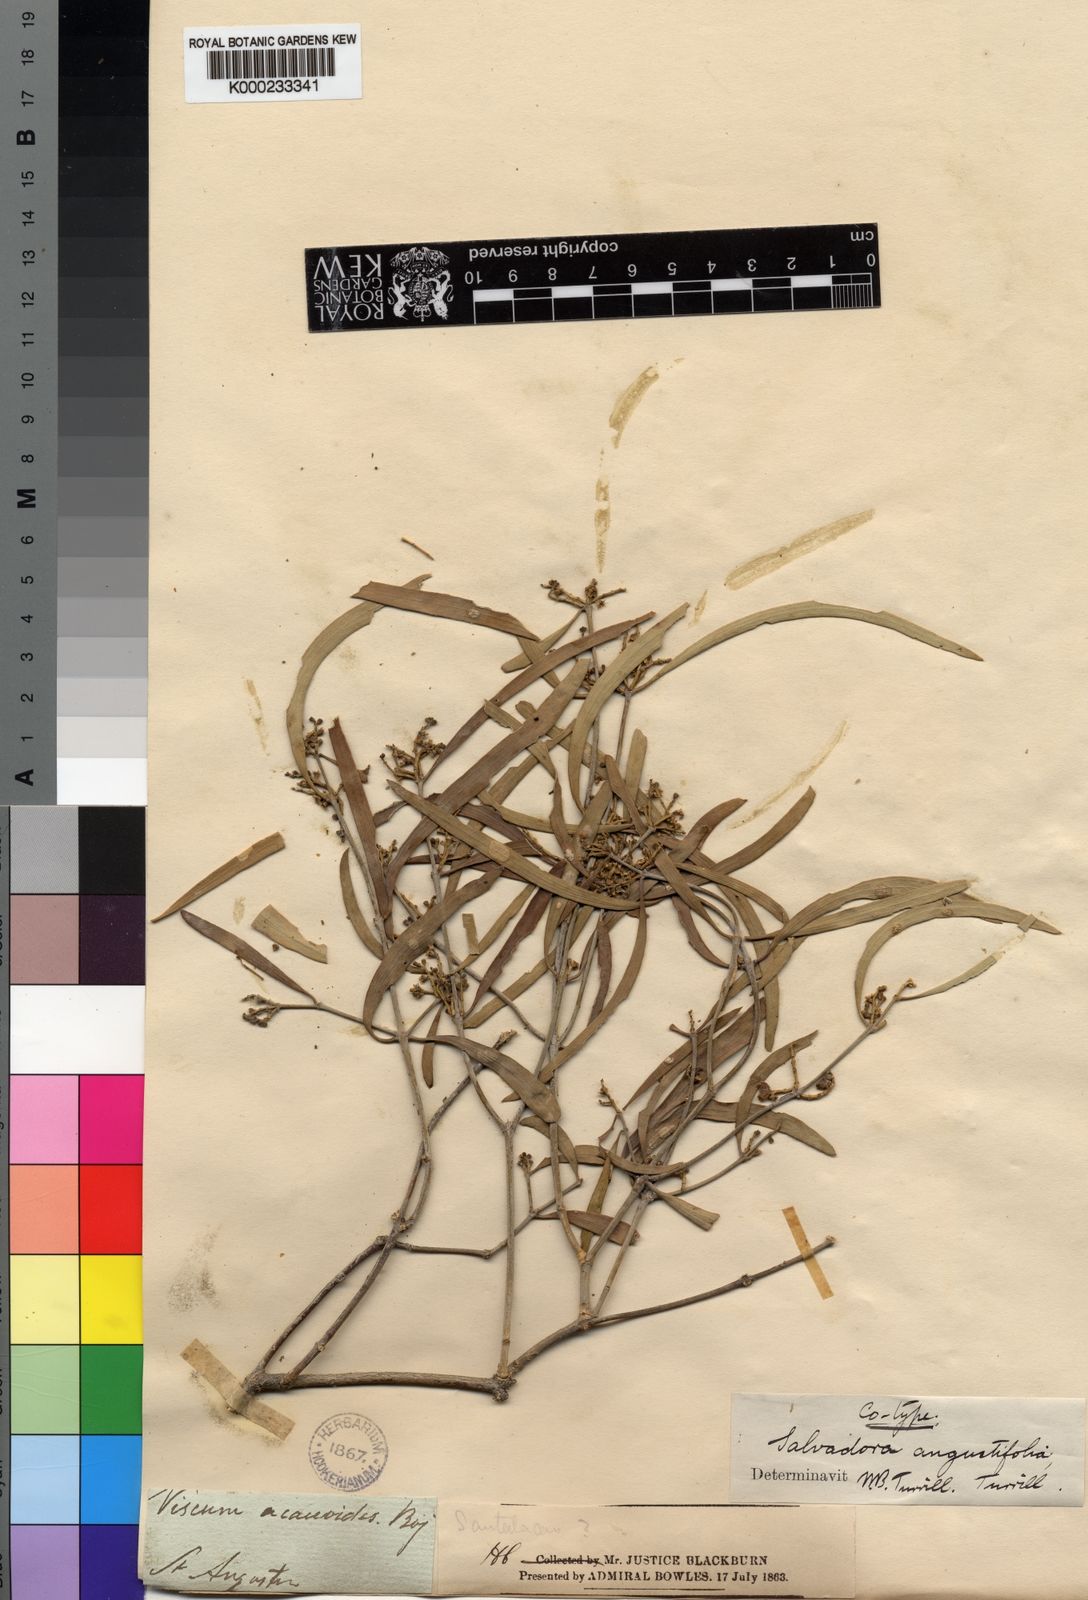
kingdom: Plantae
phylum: Tracheophyta
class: Magnoliopsida
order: Brassicales
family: Salvadoraceae
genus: Salvadora
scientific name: Salvadora angustifolia
